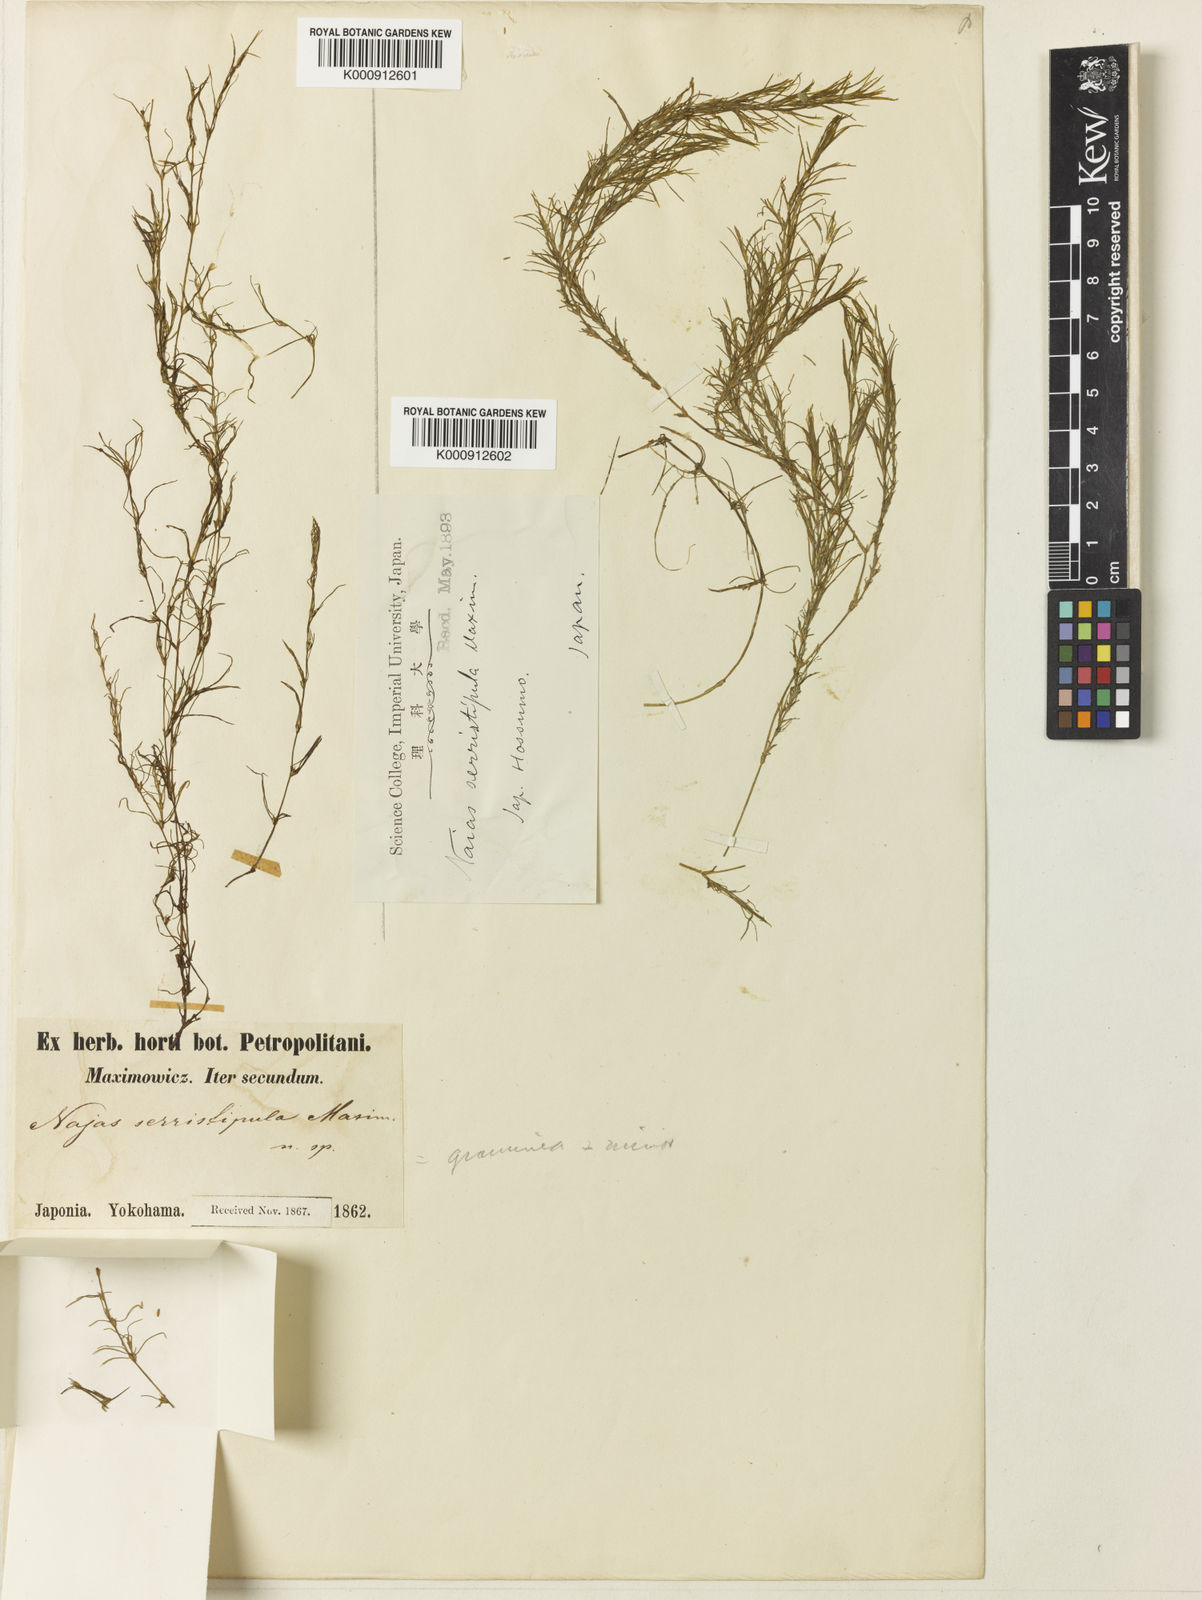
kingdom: Plantae
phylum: Tracheophyta
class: Liliopsida
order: Alismatales
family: Hydrocharitaceae
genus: Najas
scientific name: Najas graminea
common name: Ricefield waternymph
